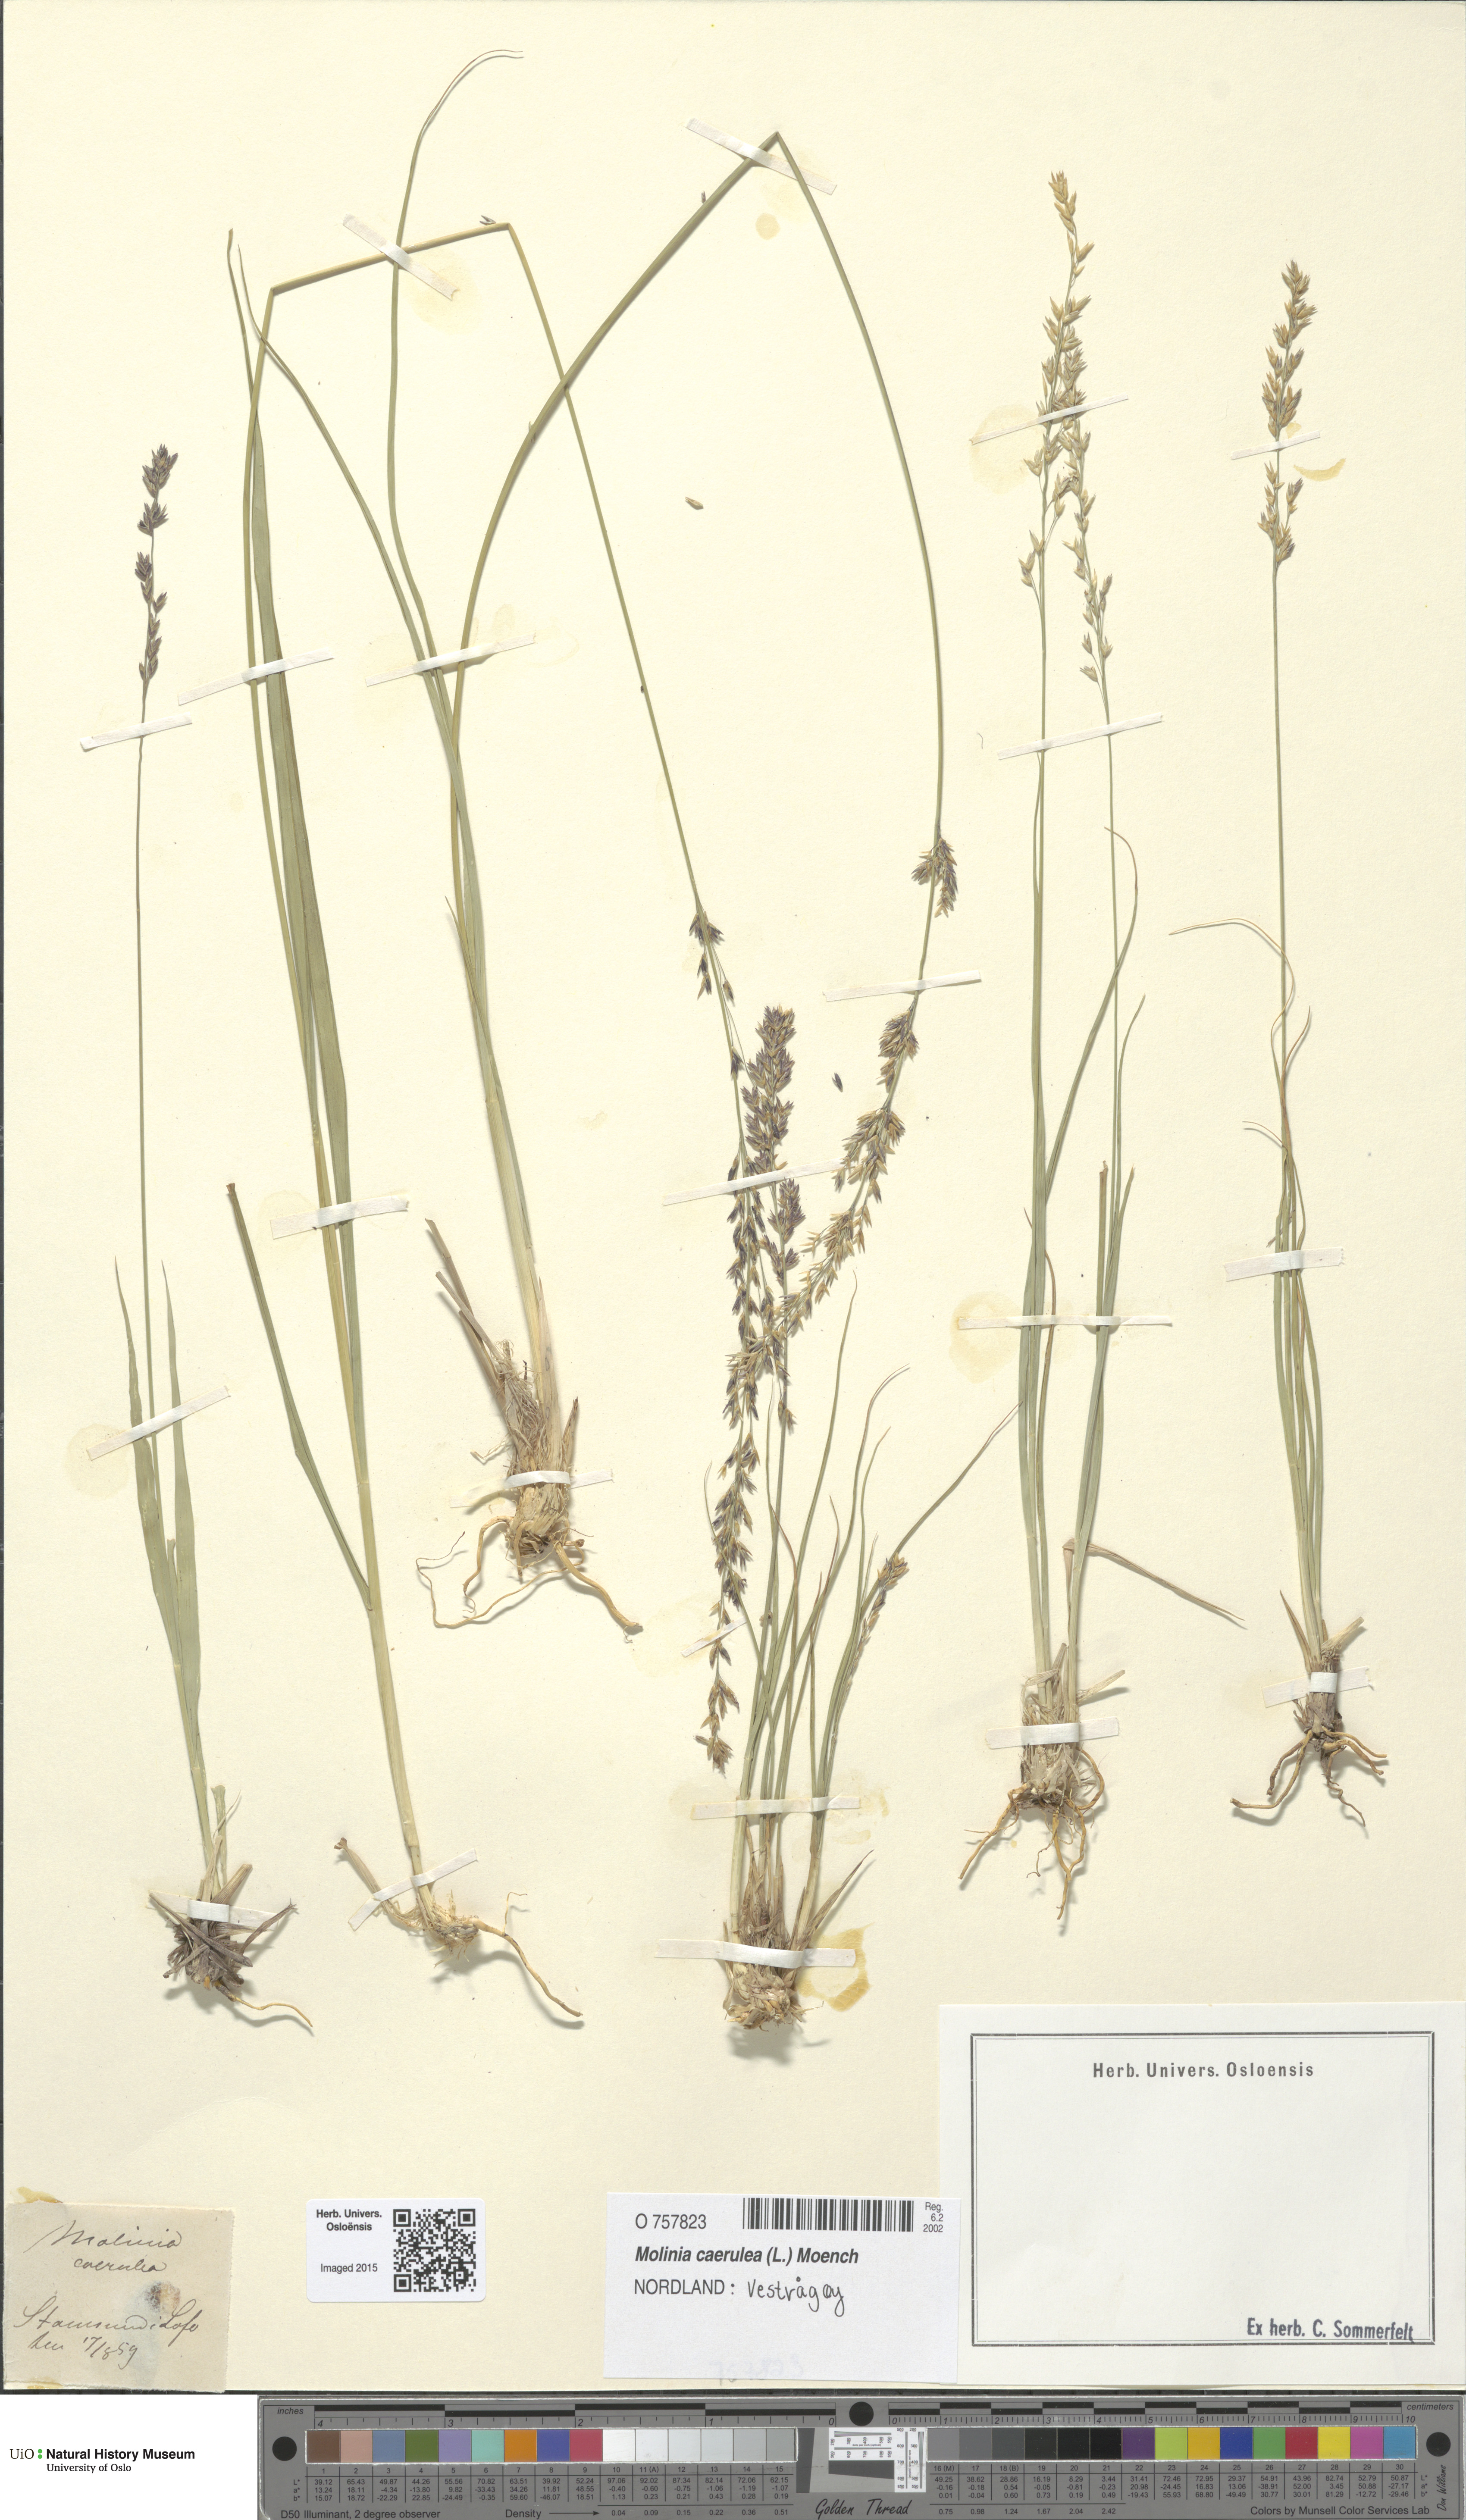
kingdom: Plantae
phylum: Tracheophyta
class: Liliopsida
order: Poales
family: Poaceae
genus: Molinia
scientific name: Molinia caerulea
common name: Purple moor-grass
